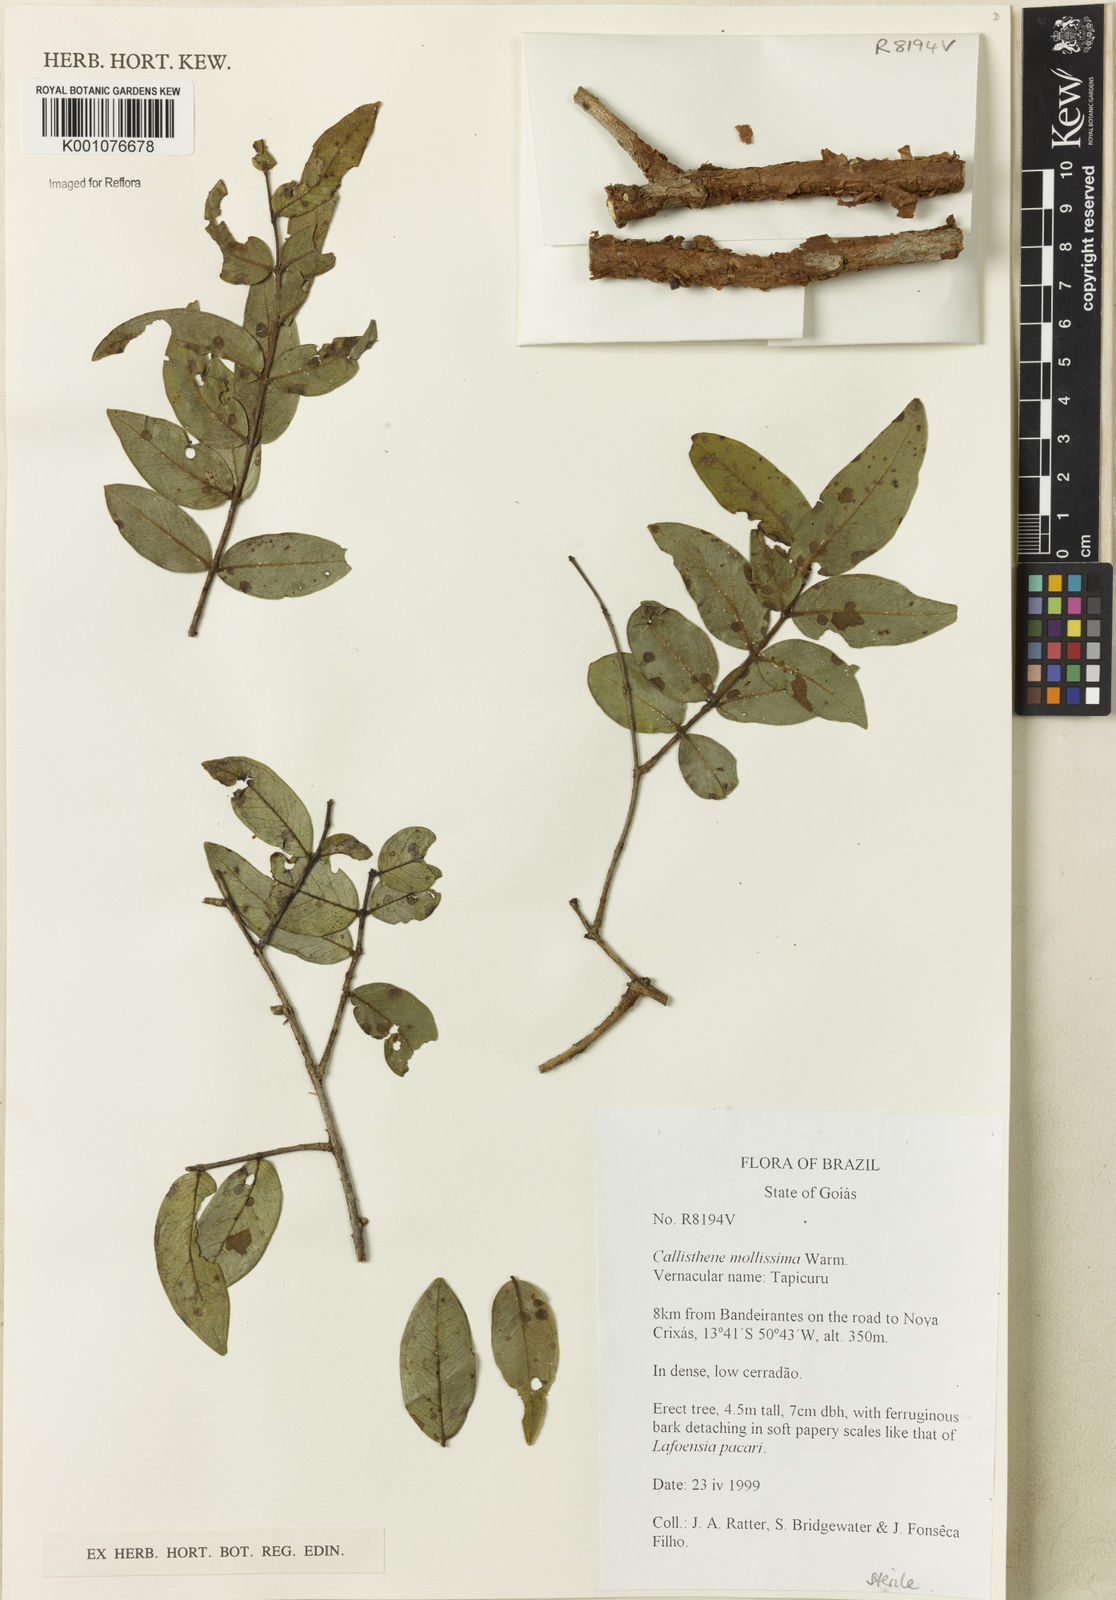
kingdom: Plantae
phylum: Tracheophyta
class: Magnoliopsida
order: Myrtales
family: Vochysiaceae
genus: Callisthene
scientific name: Callisthene mollissima
